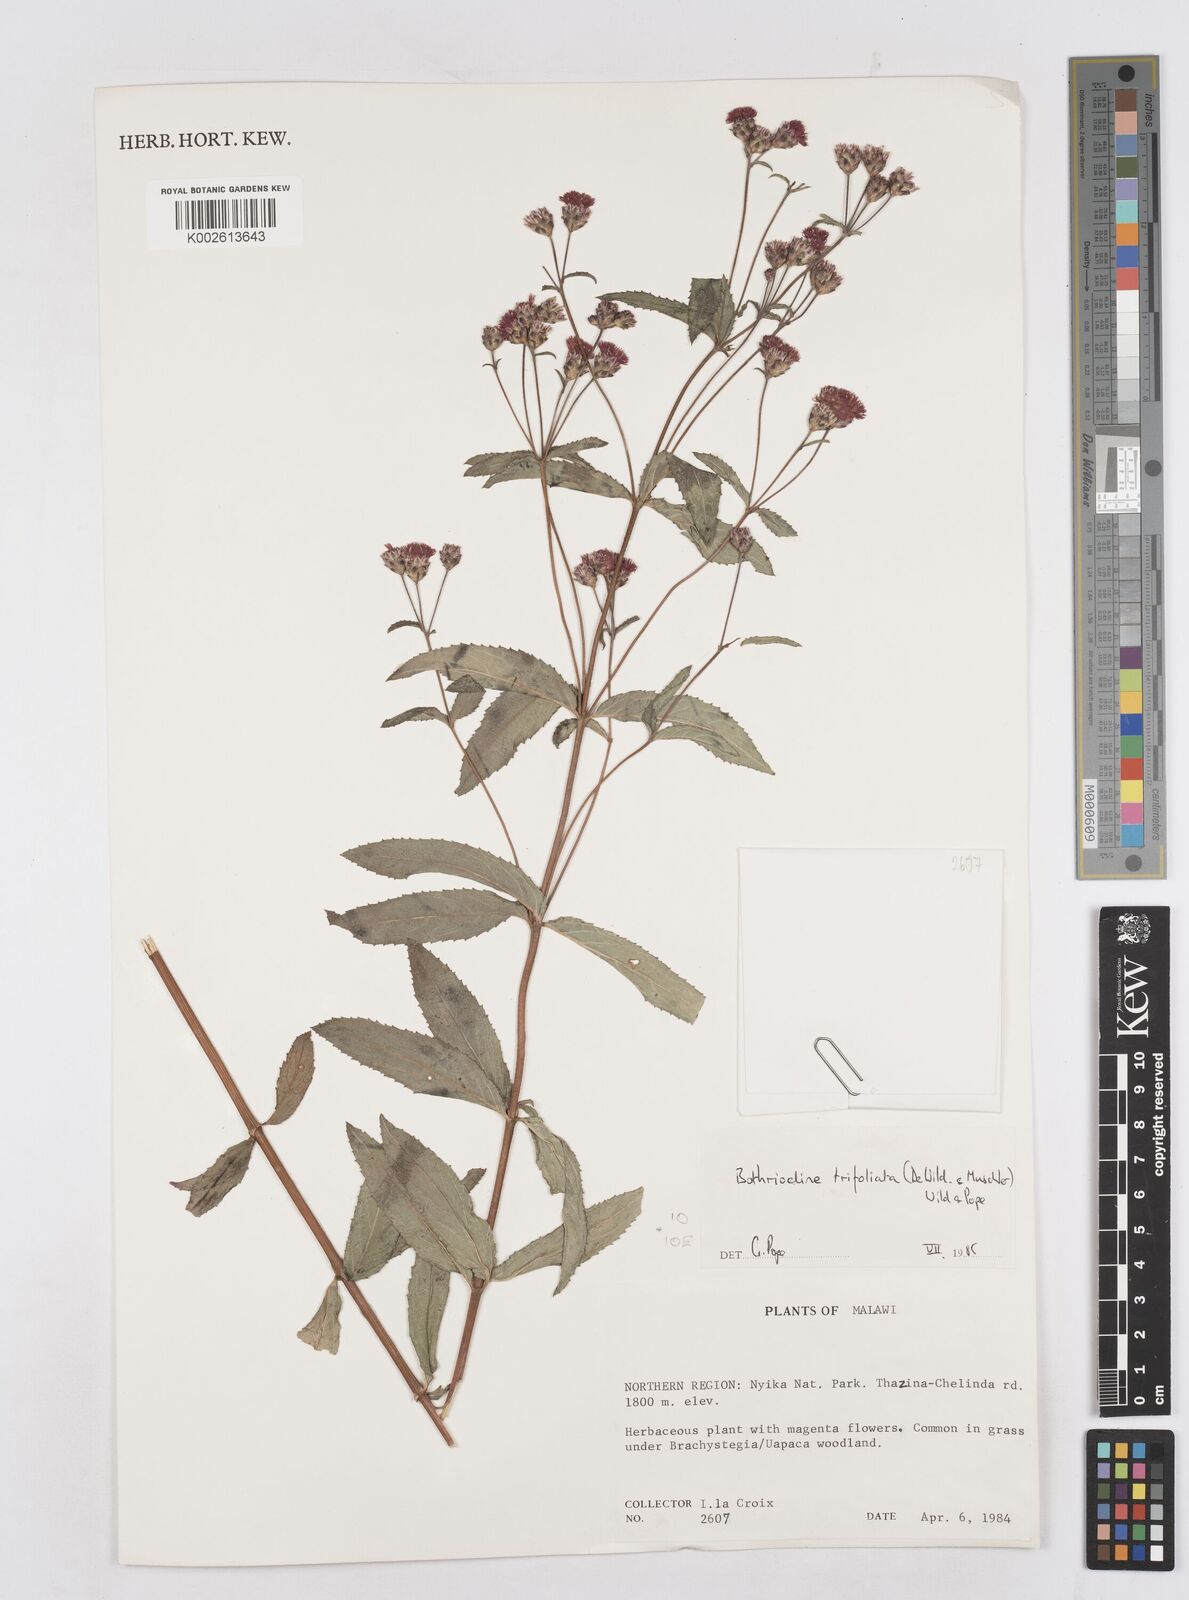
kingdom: Plantae
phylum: Tracheophyta
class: Magnoliopsida
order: Asterales
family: Asteraceae
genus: Bothriocline
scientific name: Bothriocline trifoliata
